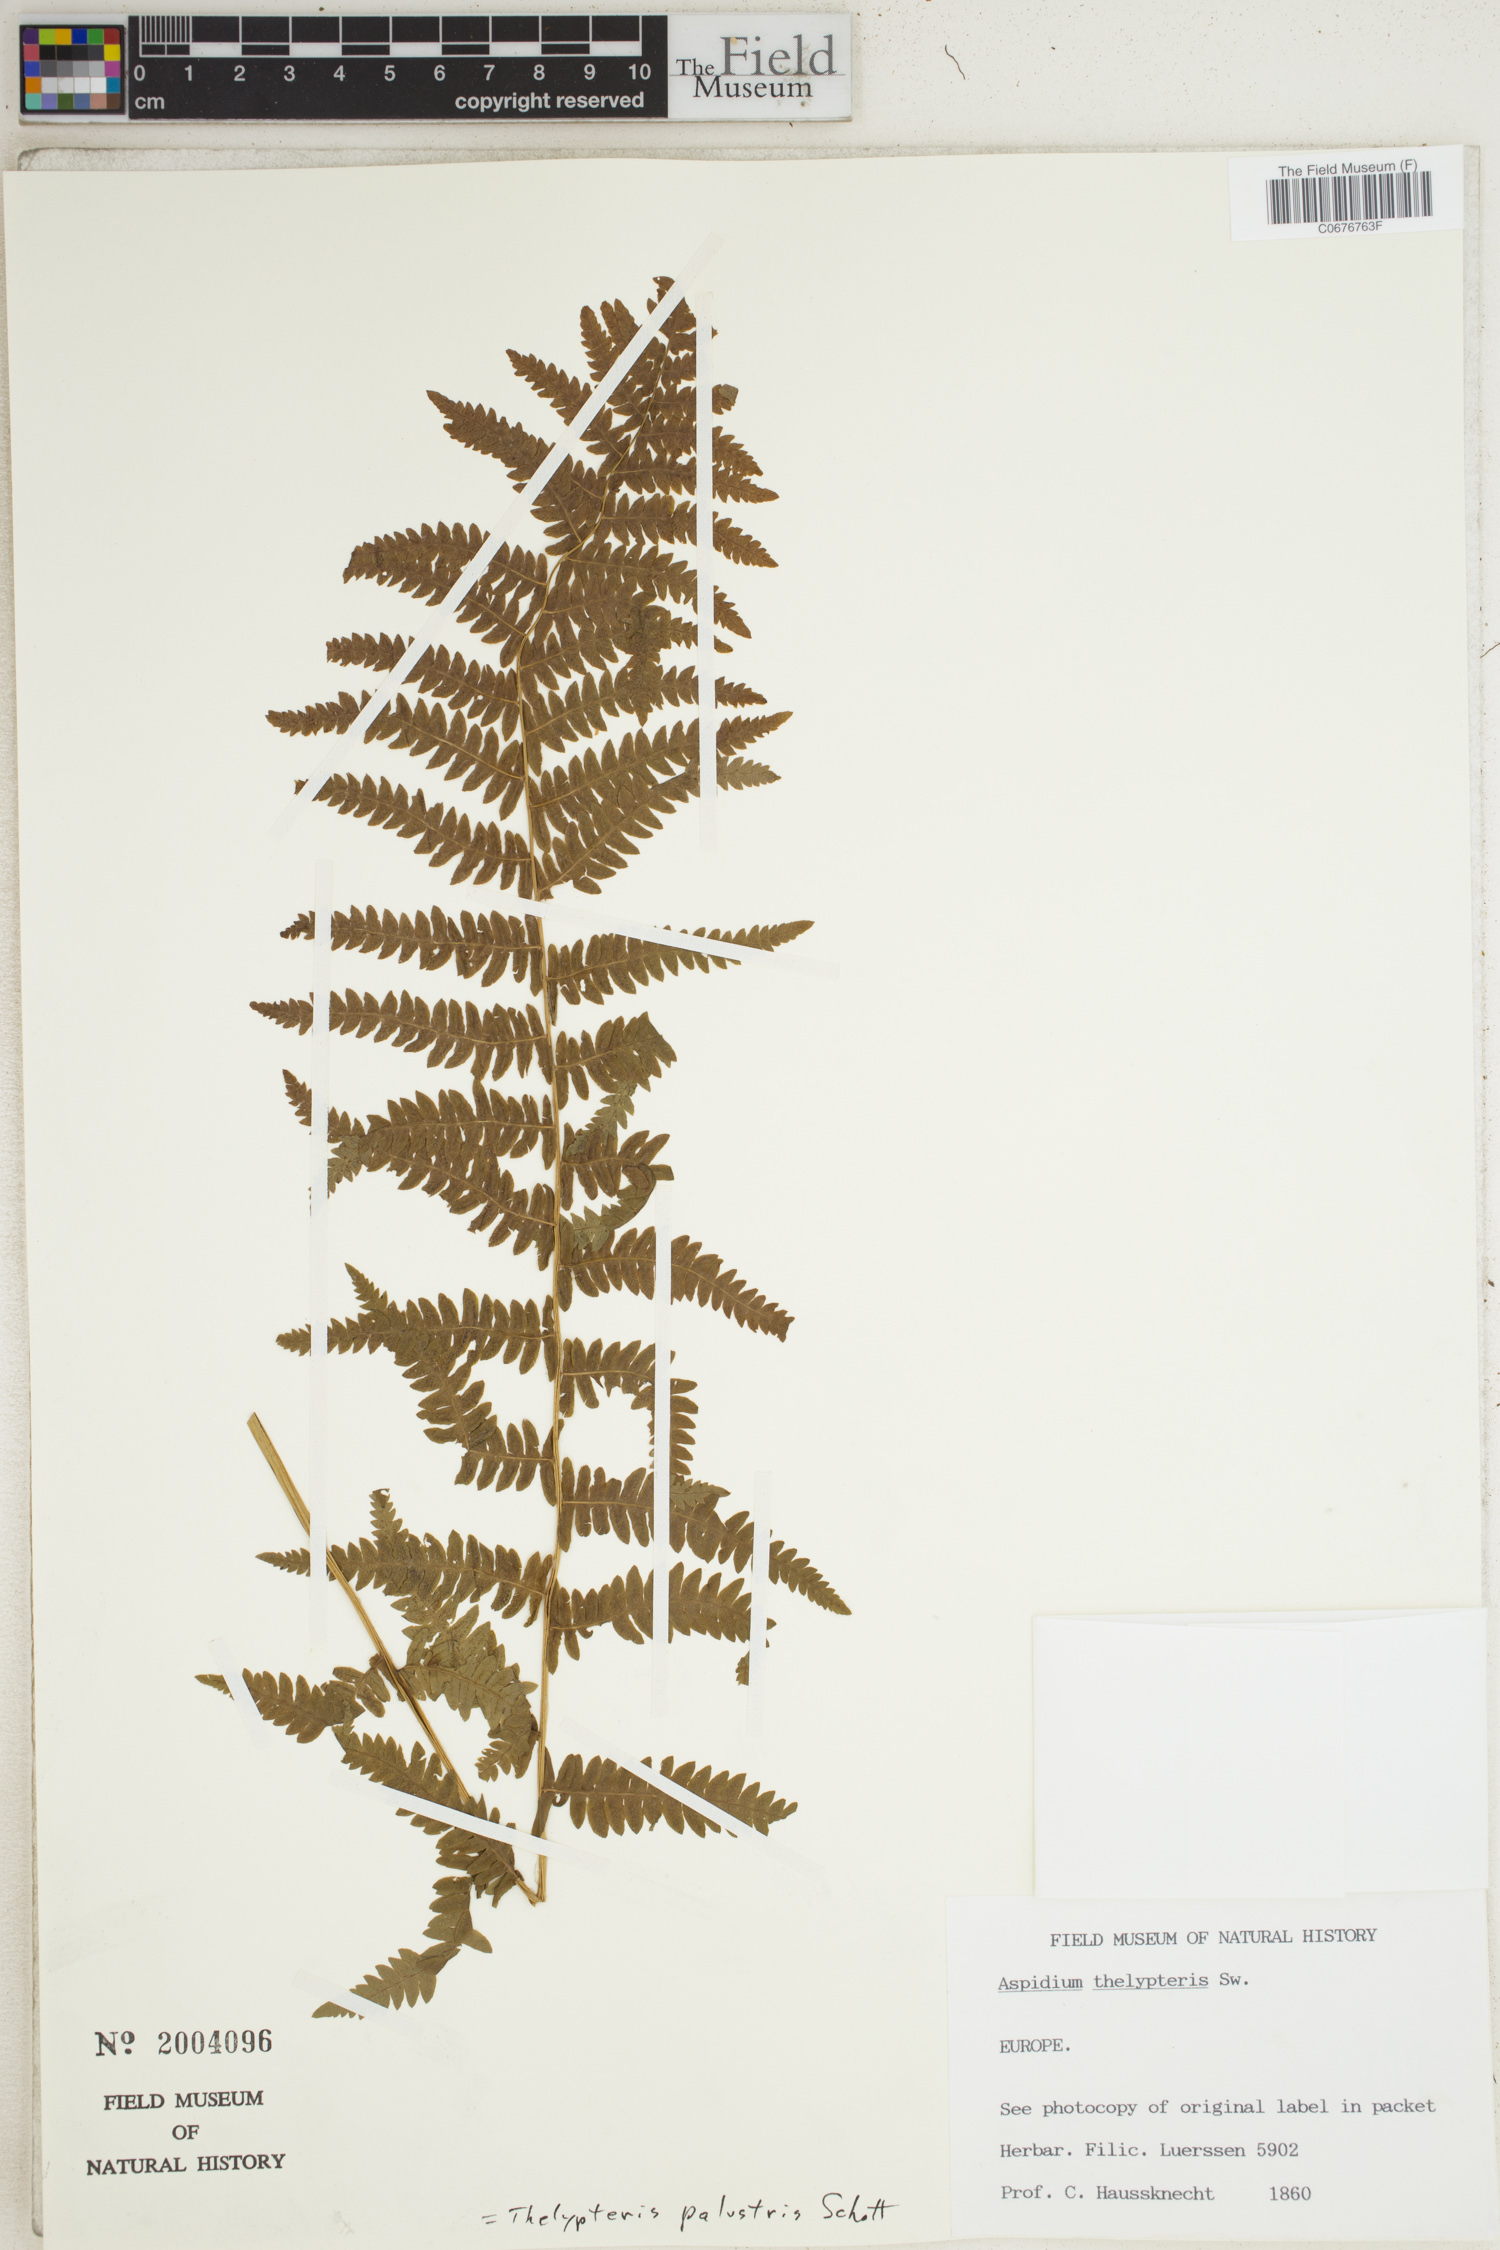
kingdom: Plantae
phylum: Tracheophyta
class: Polypodiopsida
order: Polypodiales
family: Thelypteridaceae
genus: Thelypteris
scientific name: Thelypteris palustris
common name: Marsh fern
